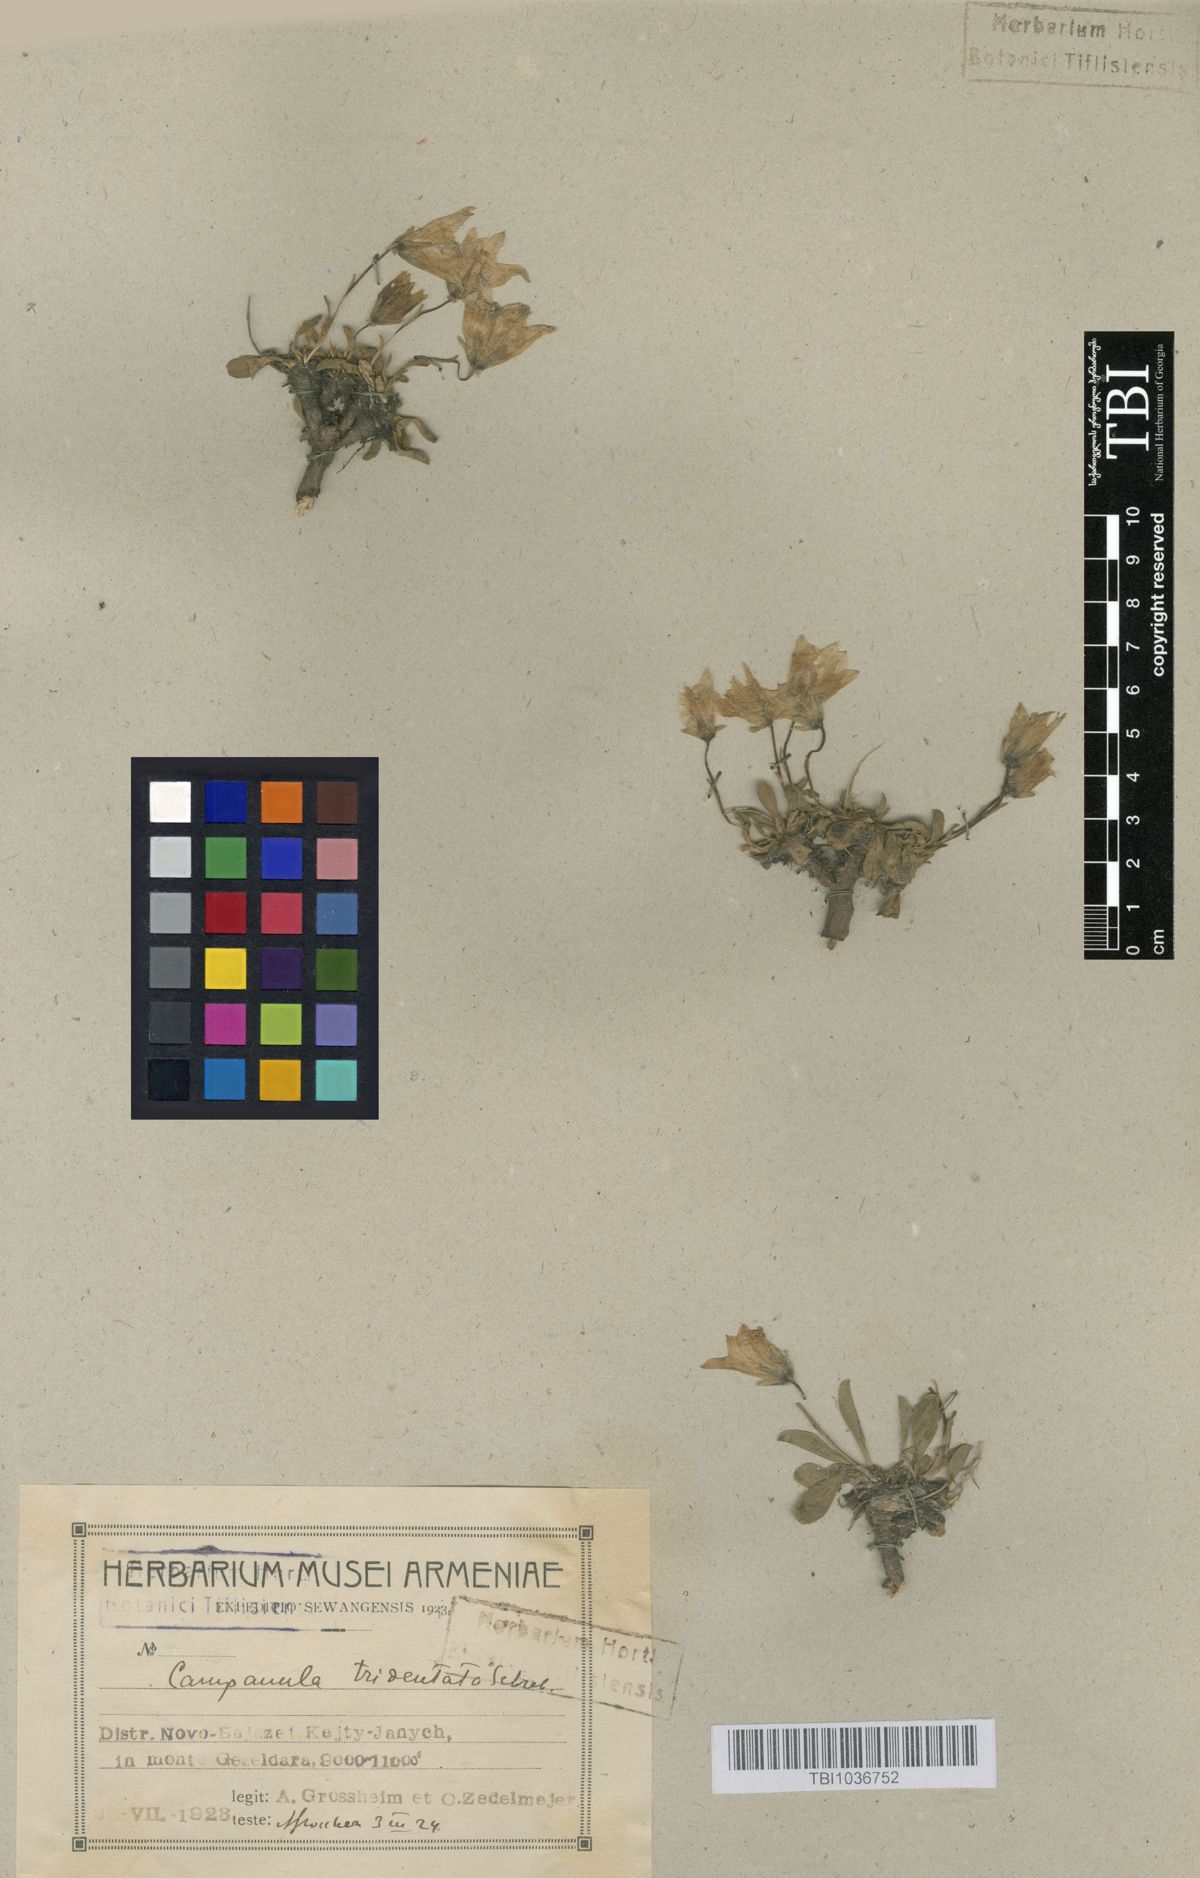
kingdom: Plantae
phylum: Tracheophyta
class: Magnoliopsida
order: Asterales
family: Campanulaceae
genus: Campanula
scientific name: Campanula tridentata
